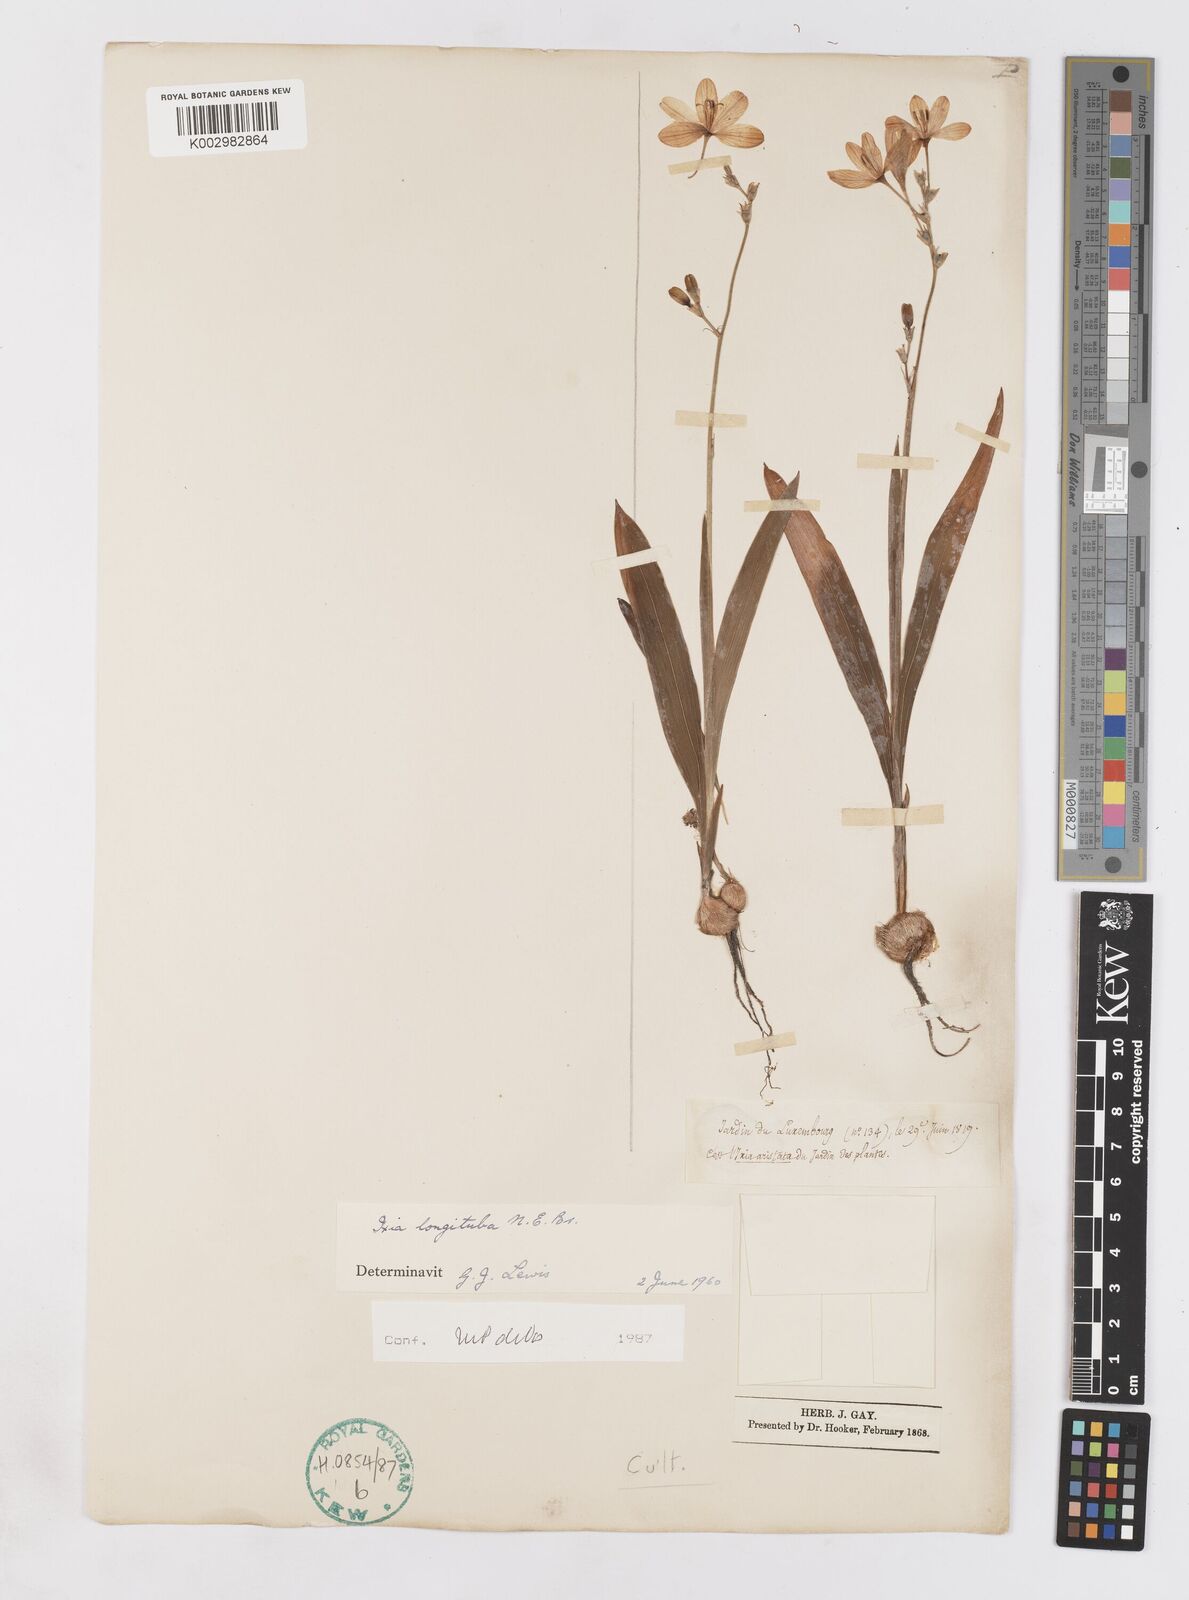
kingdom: Plantae
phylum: Tracheophyta
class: Liliopsida
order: Asparagales
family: Iridaceae
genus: Ixia
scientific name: Ixia longituba
